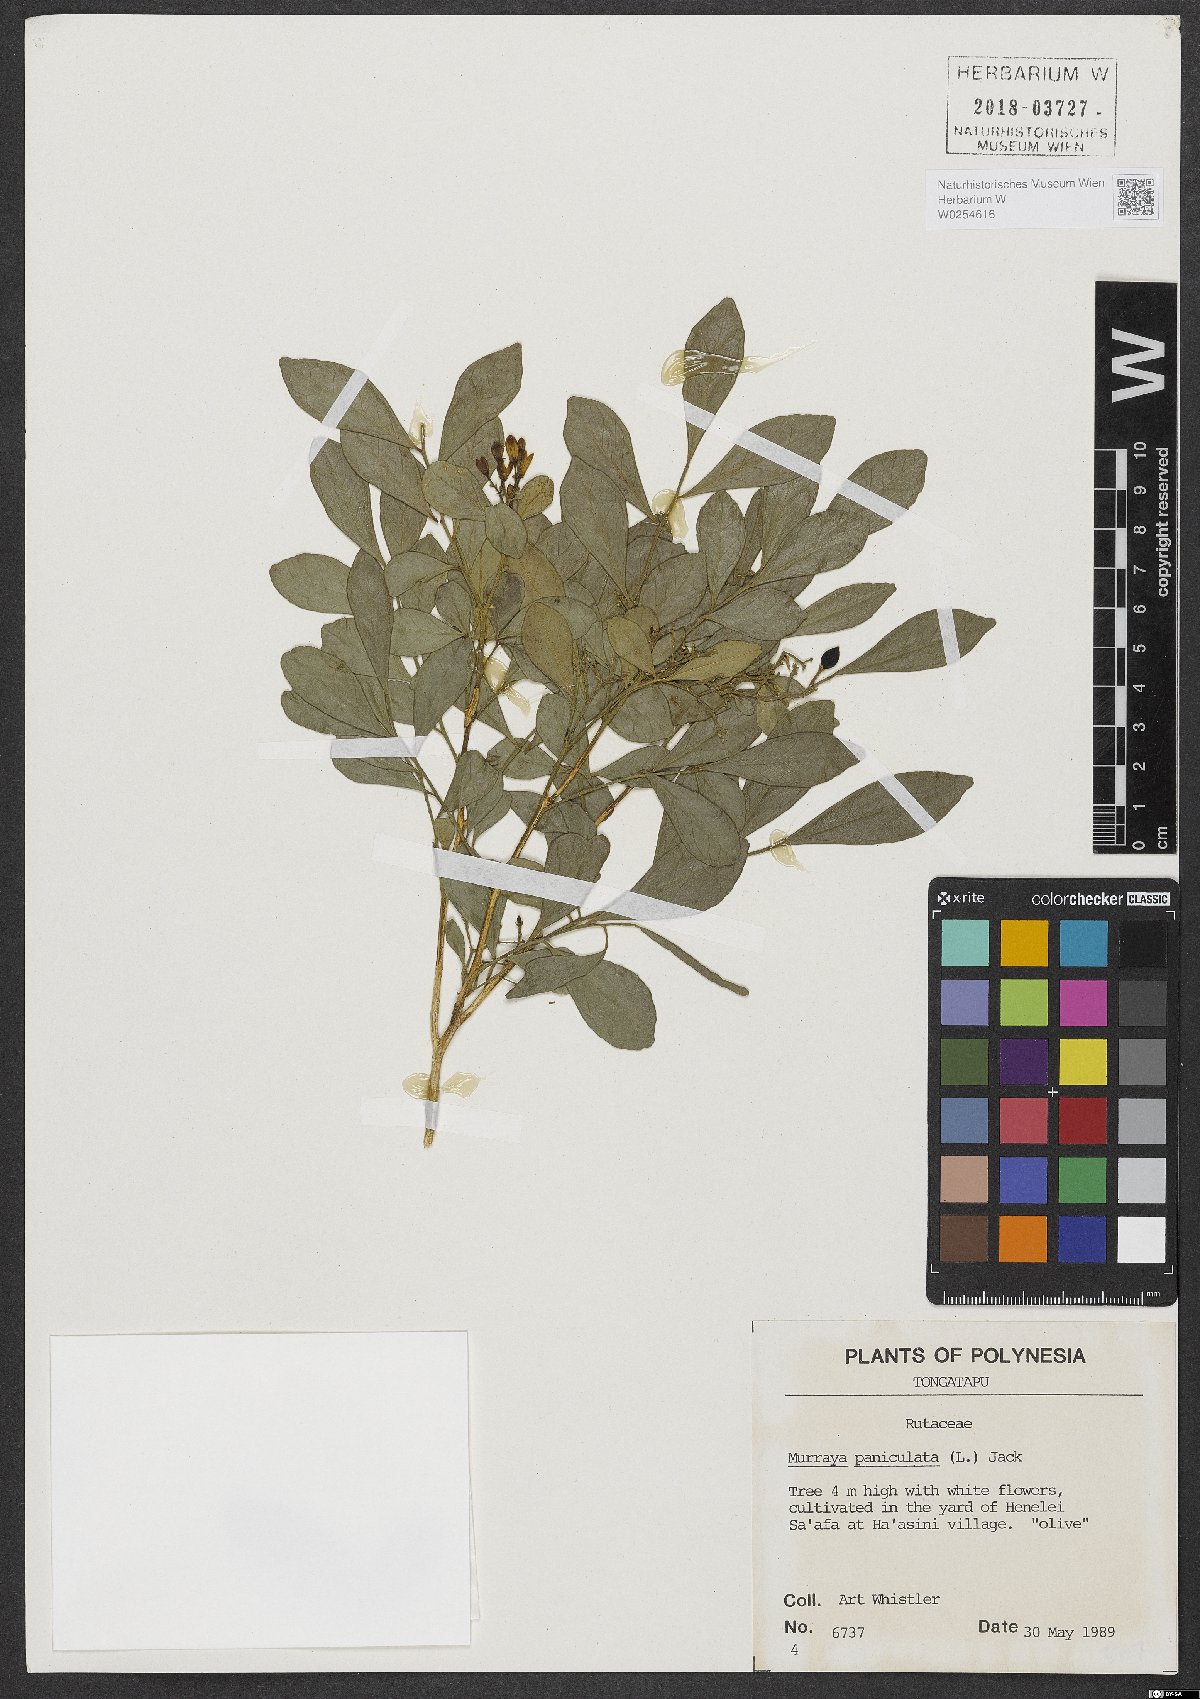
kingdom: Plantae
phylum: Tracheophyta
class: Magnoliopsida
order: Sapindales
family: Rutaceae
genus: Murraya
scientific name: Murraya paniculata
